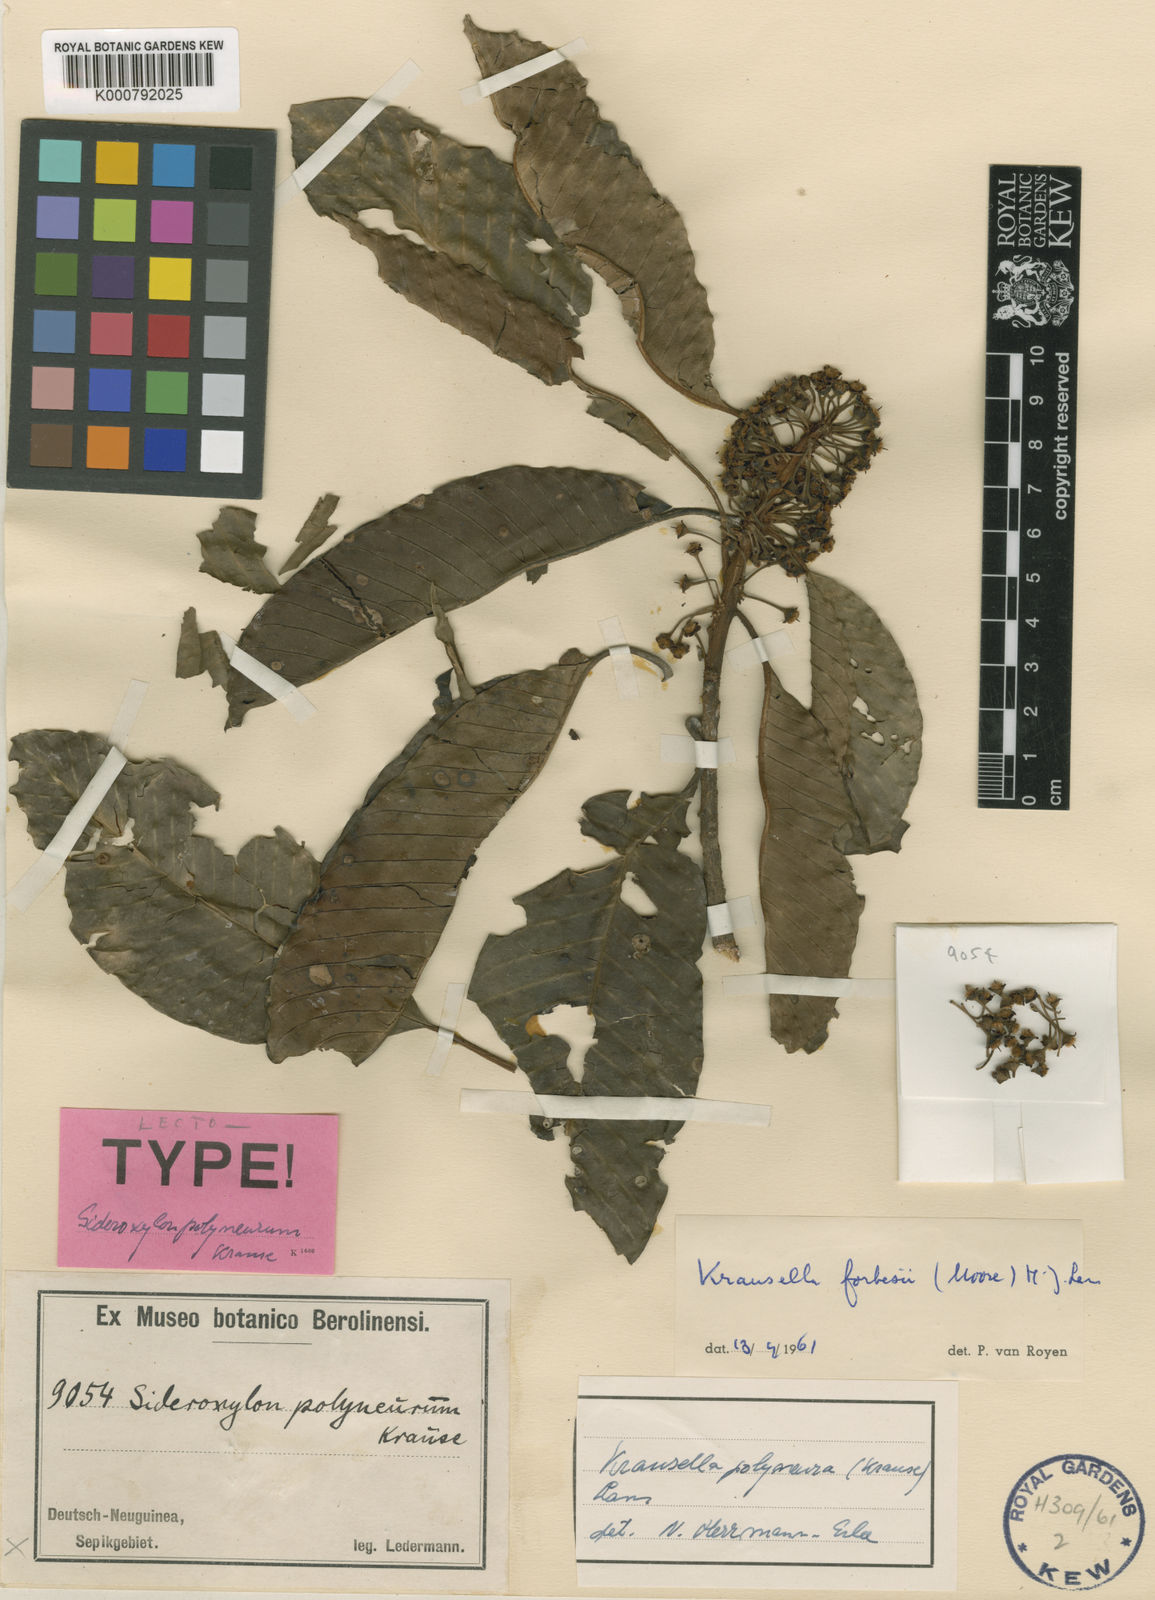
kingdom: Plantae
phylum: Tracheophyta
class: Magnoliopsida
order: Ericales
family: Sapotaceae
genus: Planchonella
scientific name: Planchonella polyneura
